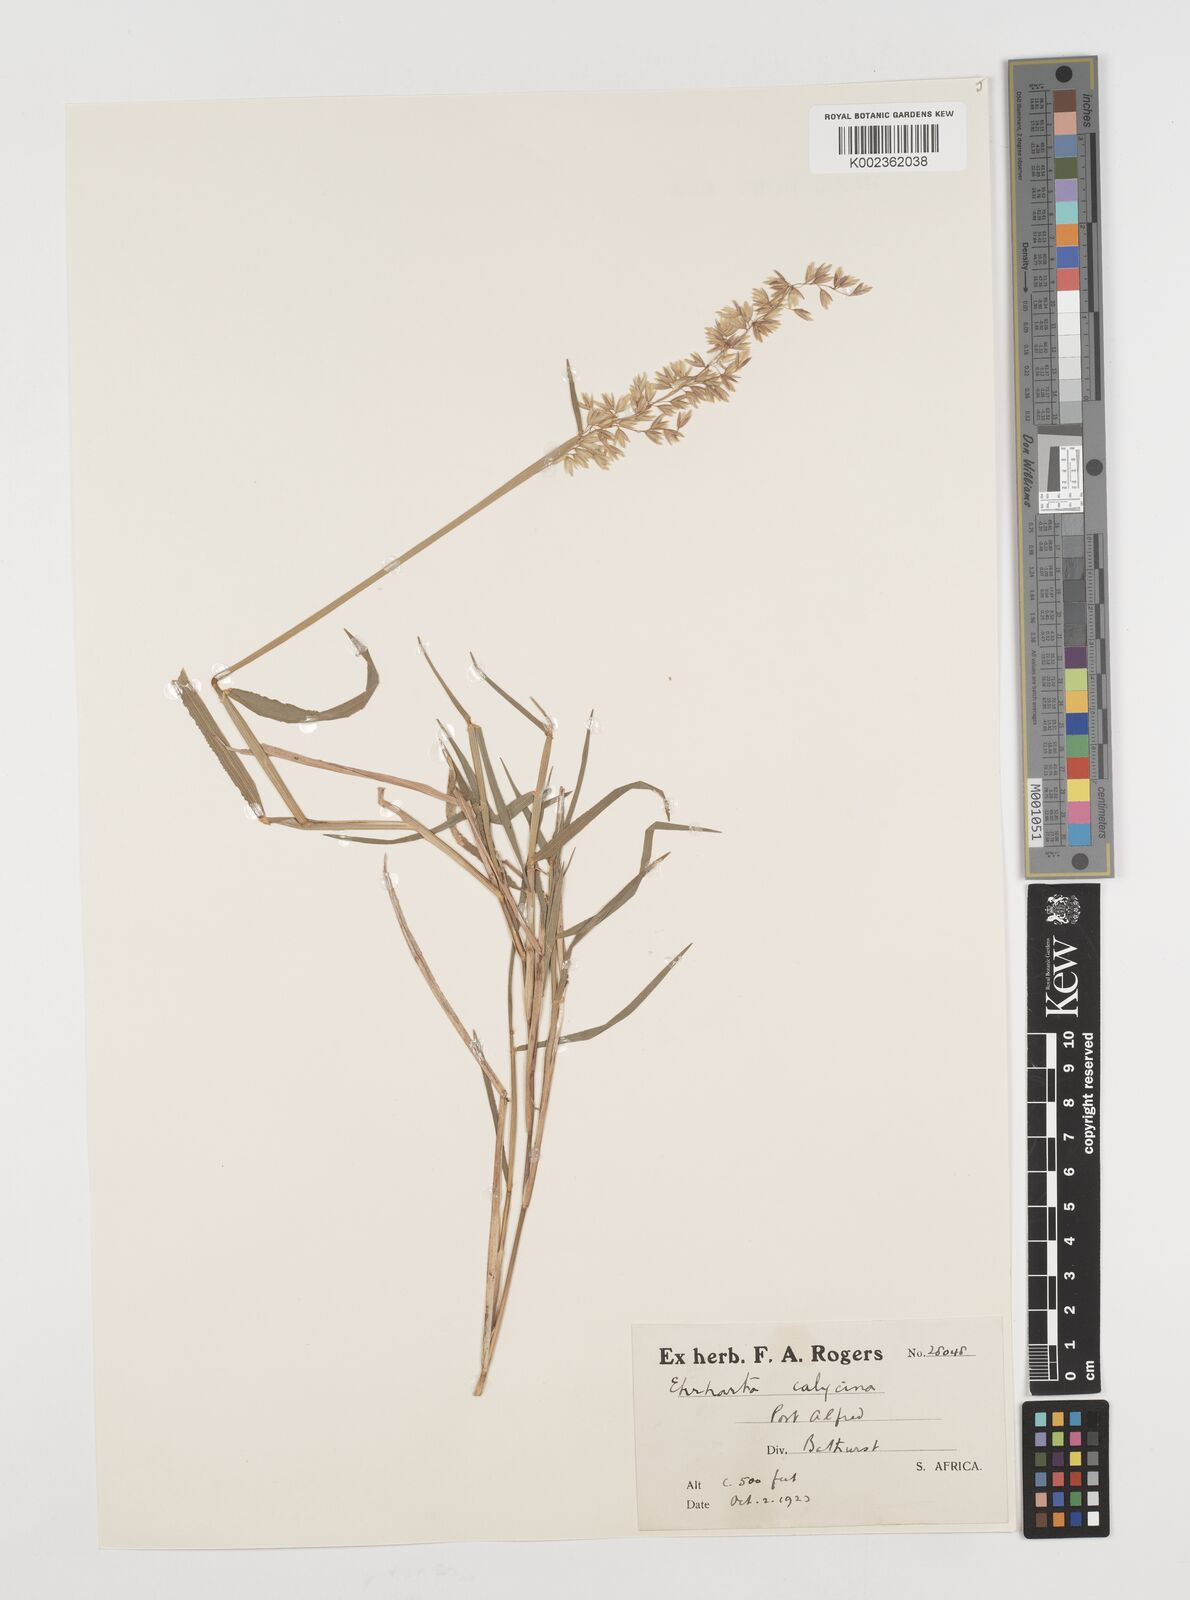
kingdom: Plantae
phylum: Tracheophyta
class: Liliopsida
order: Poales
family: Poaceae
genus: Ehrharta
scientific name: Ehrharta calycina
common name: Perennial veldtgrass
